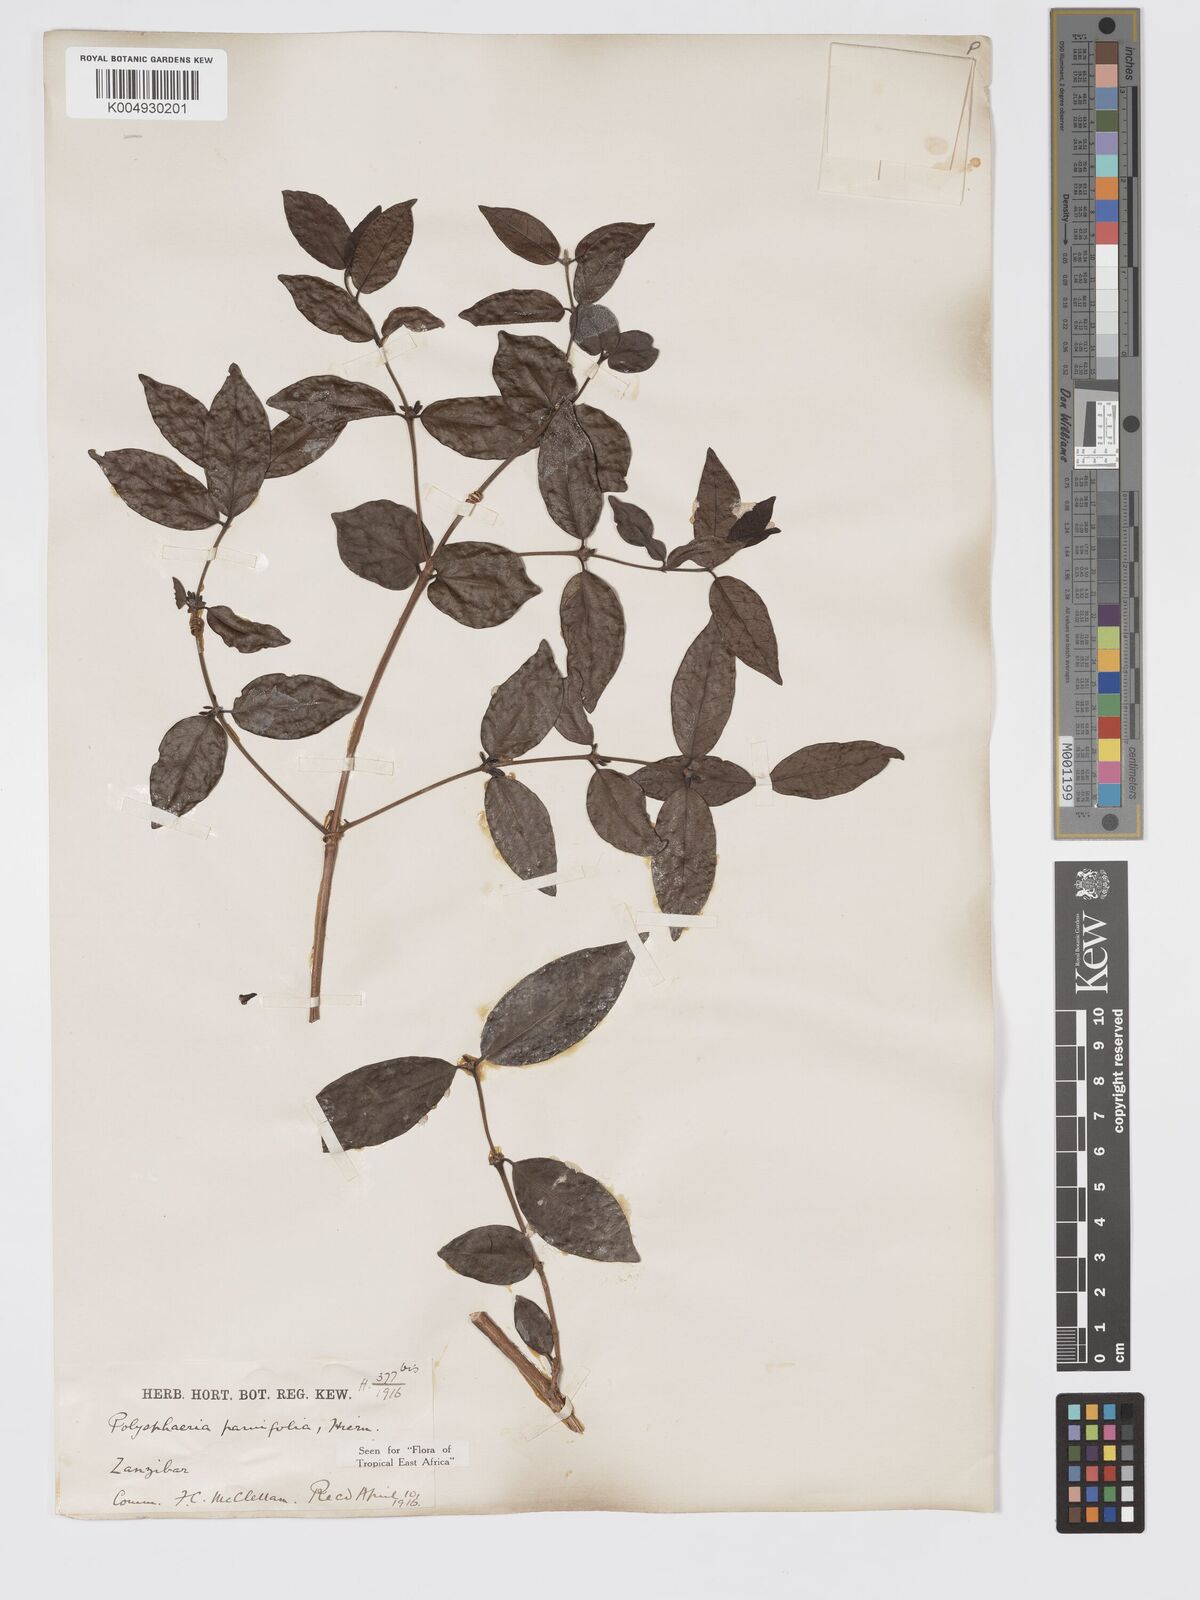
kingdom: Plantae
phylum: Tracheophyta
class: Magnoliopsida
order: Gentianales
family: Rubiaceae
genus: Polysphaeria
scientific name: Polysphaeria parvifolia
